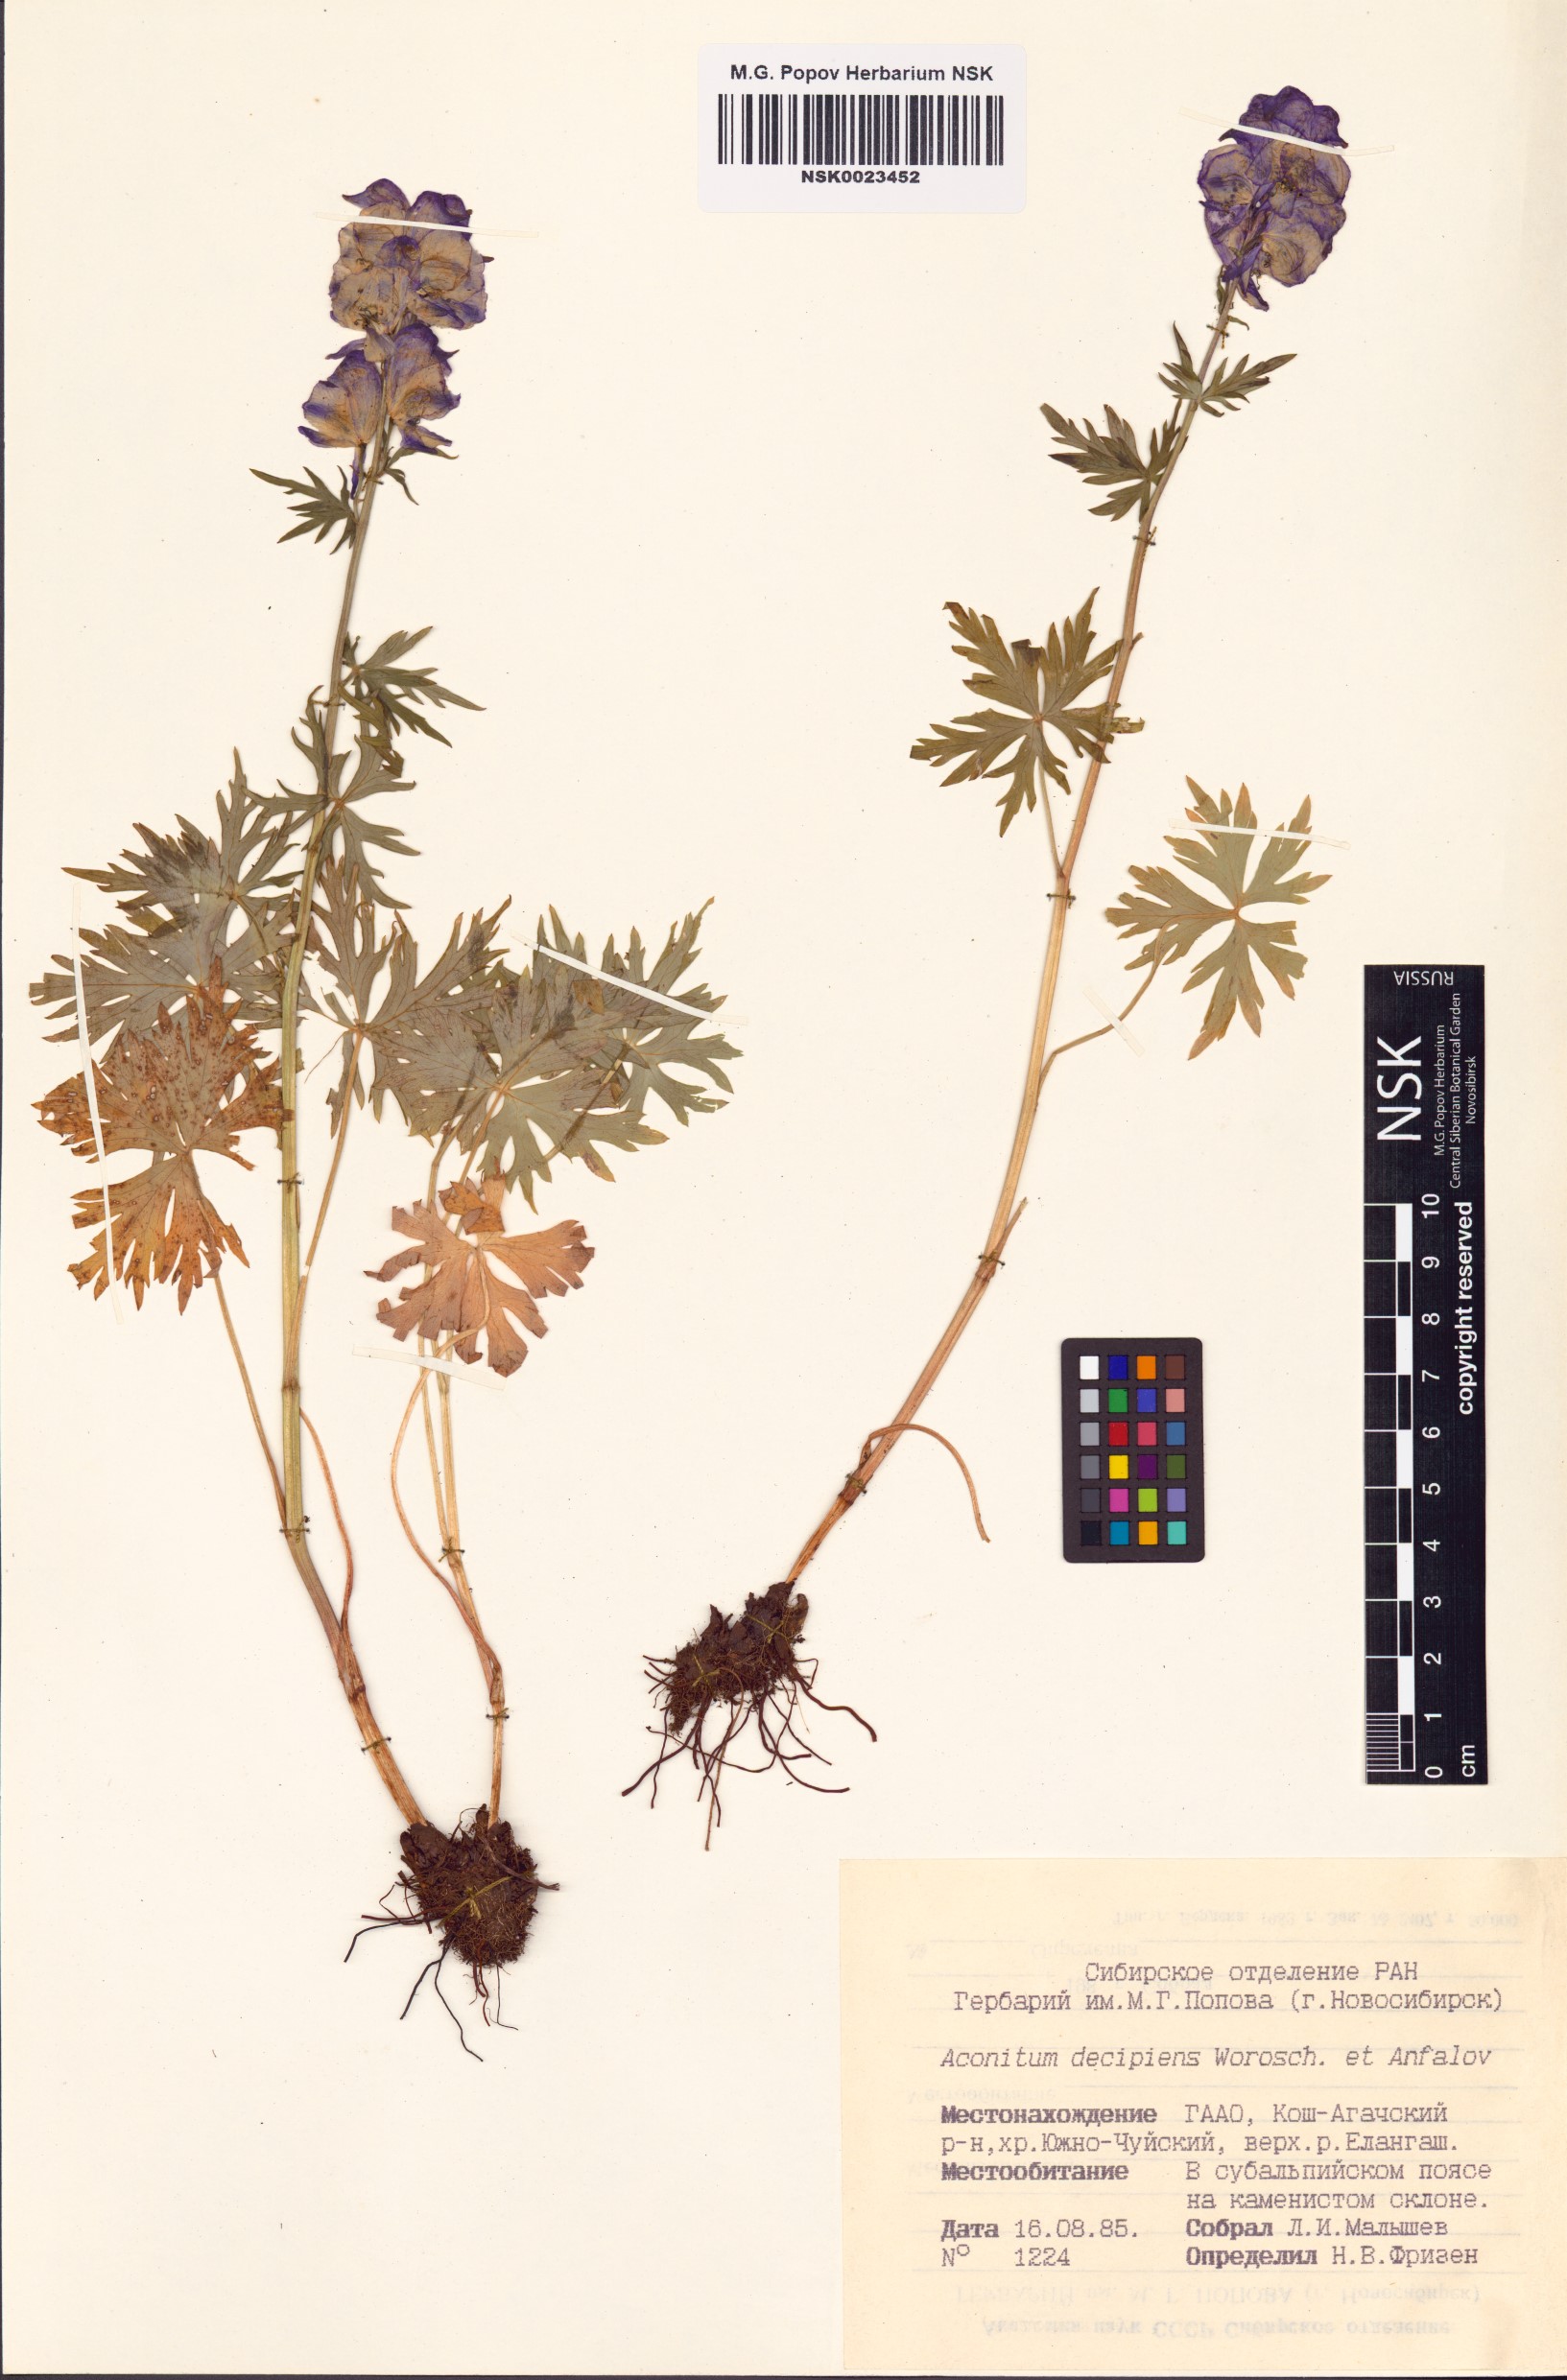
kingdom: Plantae
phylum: Tracheophyta
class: Magnoliopsida
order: Ranunculales
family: Ranunculaceae
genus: Aconitum
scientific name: Aconitum decipiens
